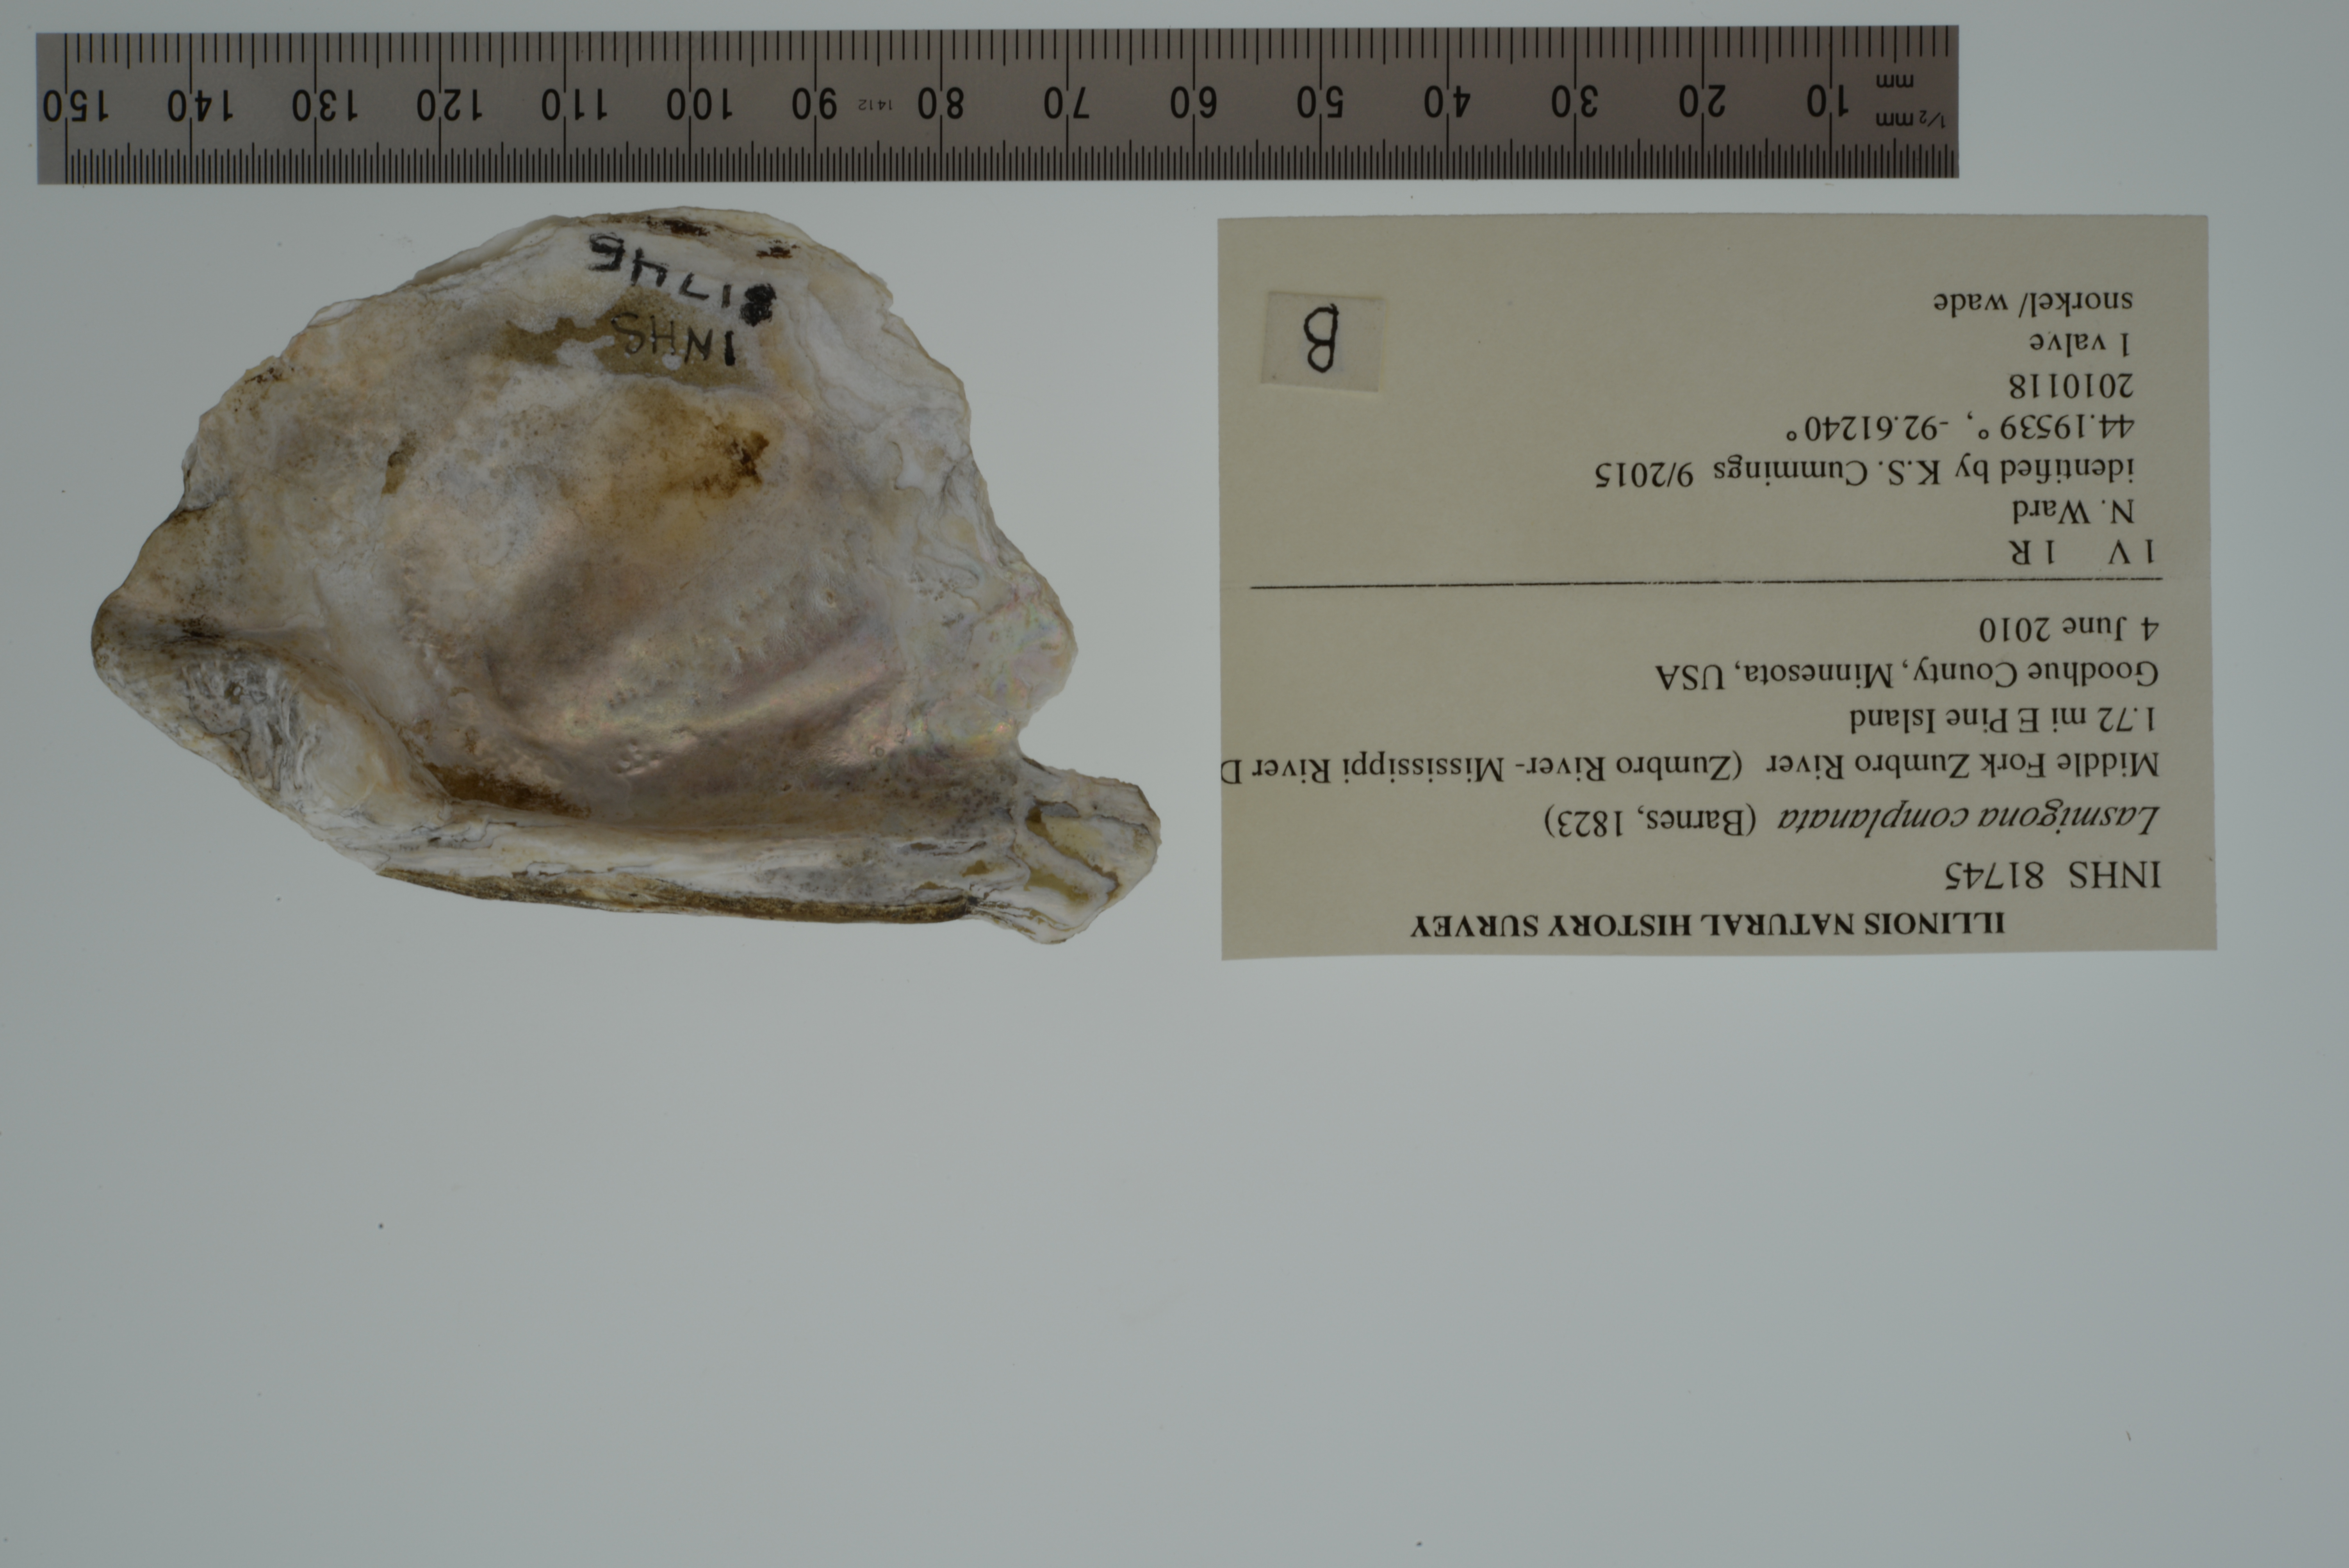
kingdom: Animalia
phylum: Mollusca
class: Bivalvia
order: Unionida
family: Unionidae
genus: Lasmigona
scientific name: Lasmigona complanata
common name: White heelsplitter
